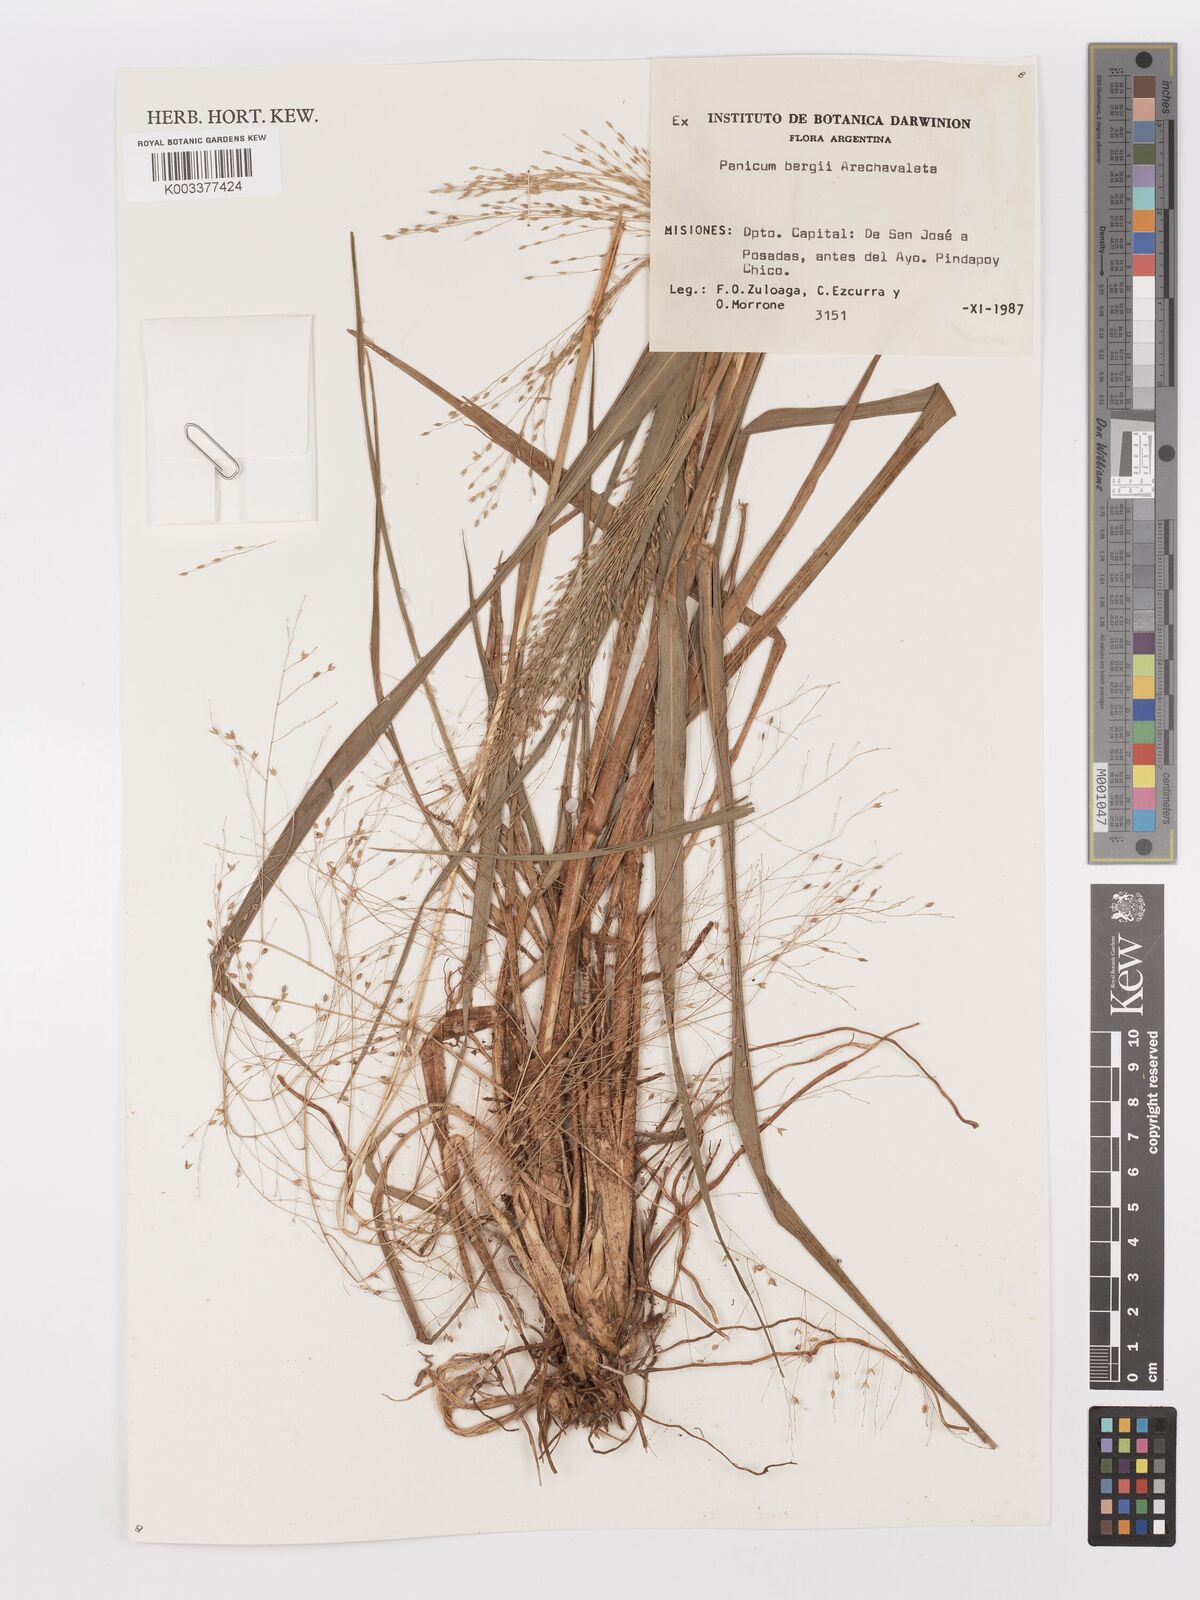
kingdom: Plantae
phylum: Tracheophyta
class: Liliopsida
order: Poales
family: Poaceae
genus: Panicum
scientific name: Panicum bergii
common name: Berg's panicgrass
